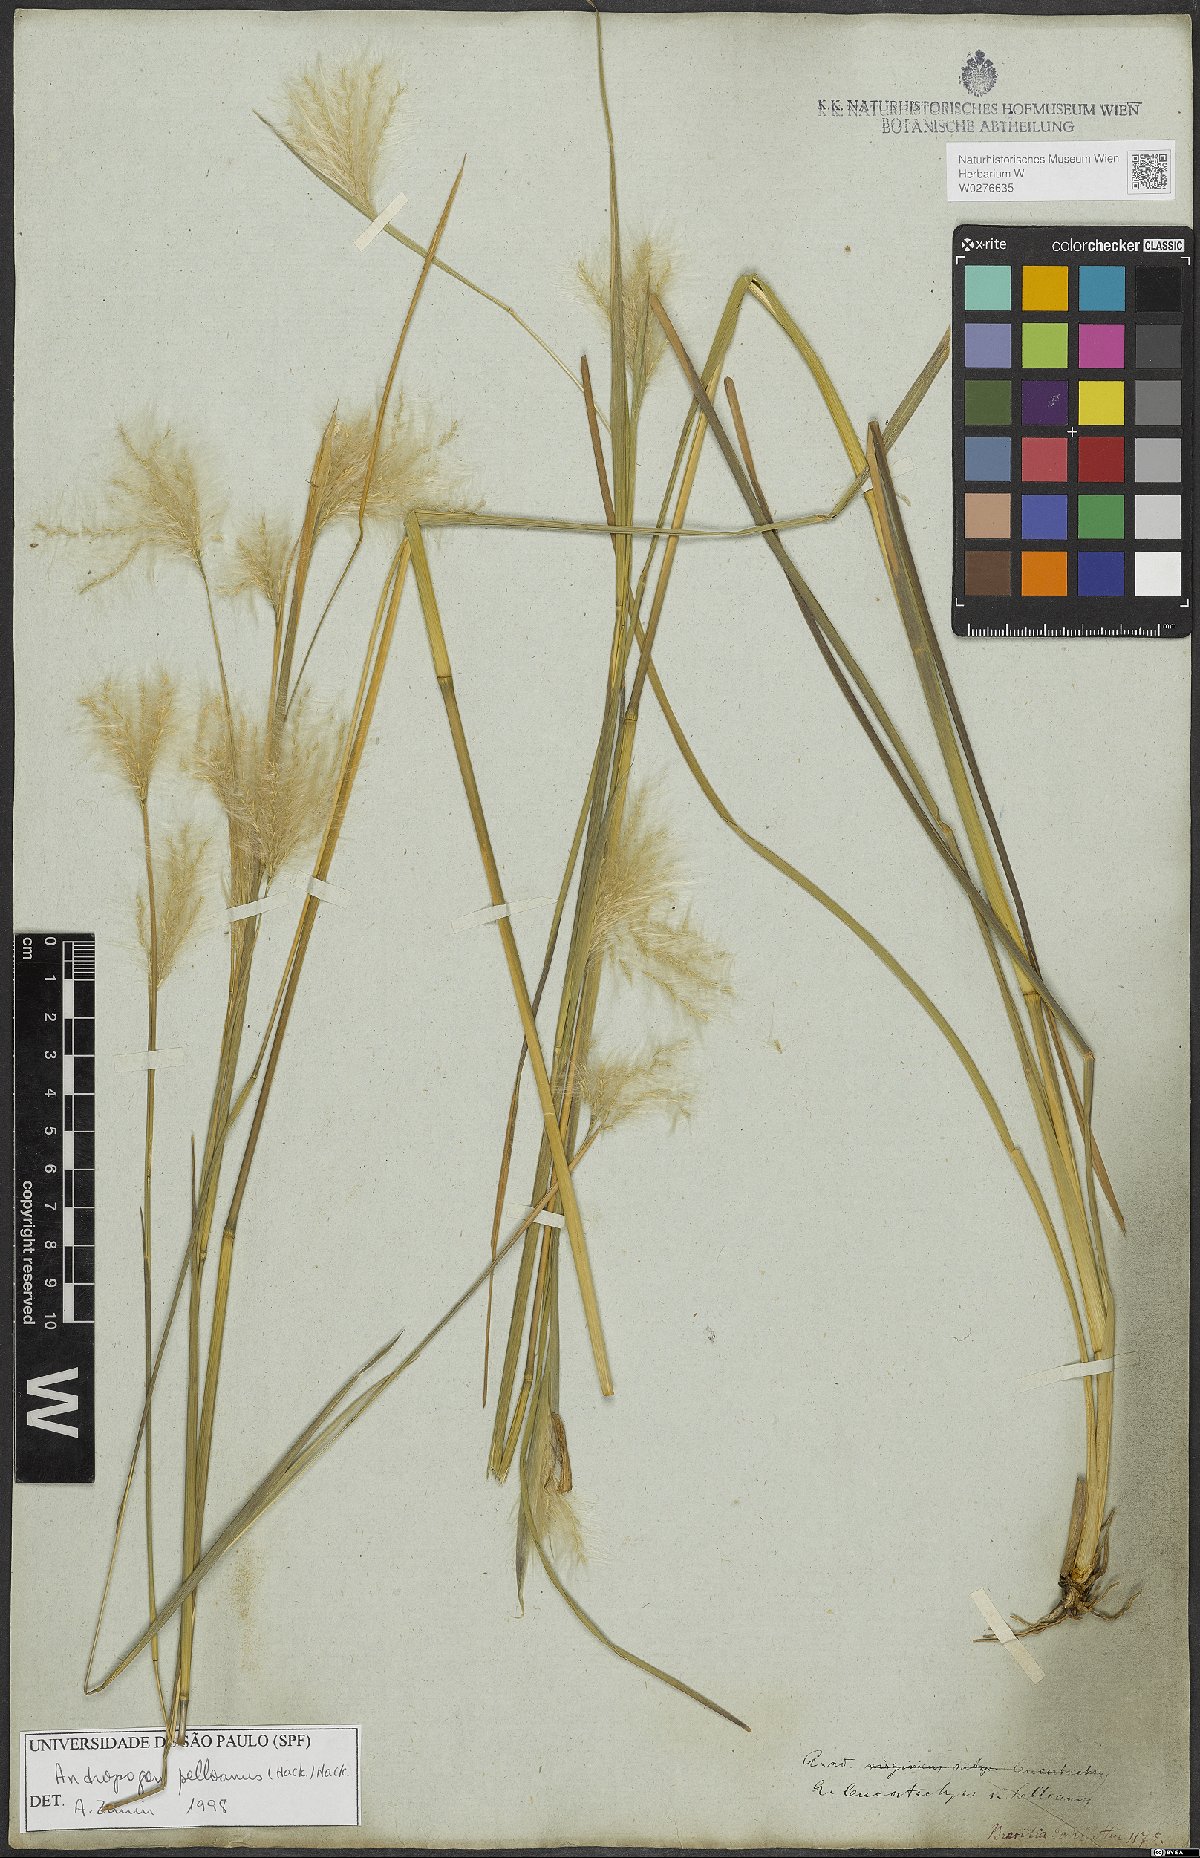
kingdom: Plantae
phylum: Tracheophyta
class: Liliopsida
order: Poales
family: Poaceae
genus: Andropogon
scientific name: Andropogon selloanus
